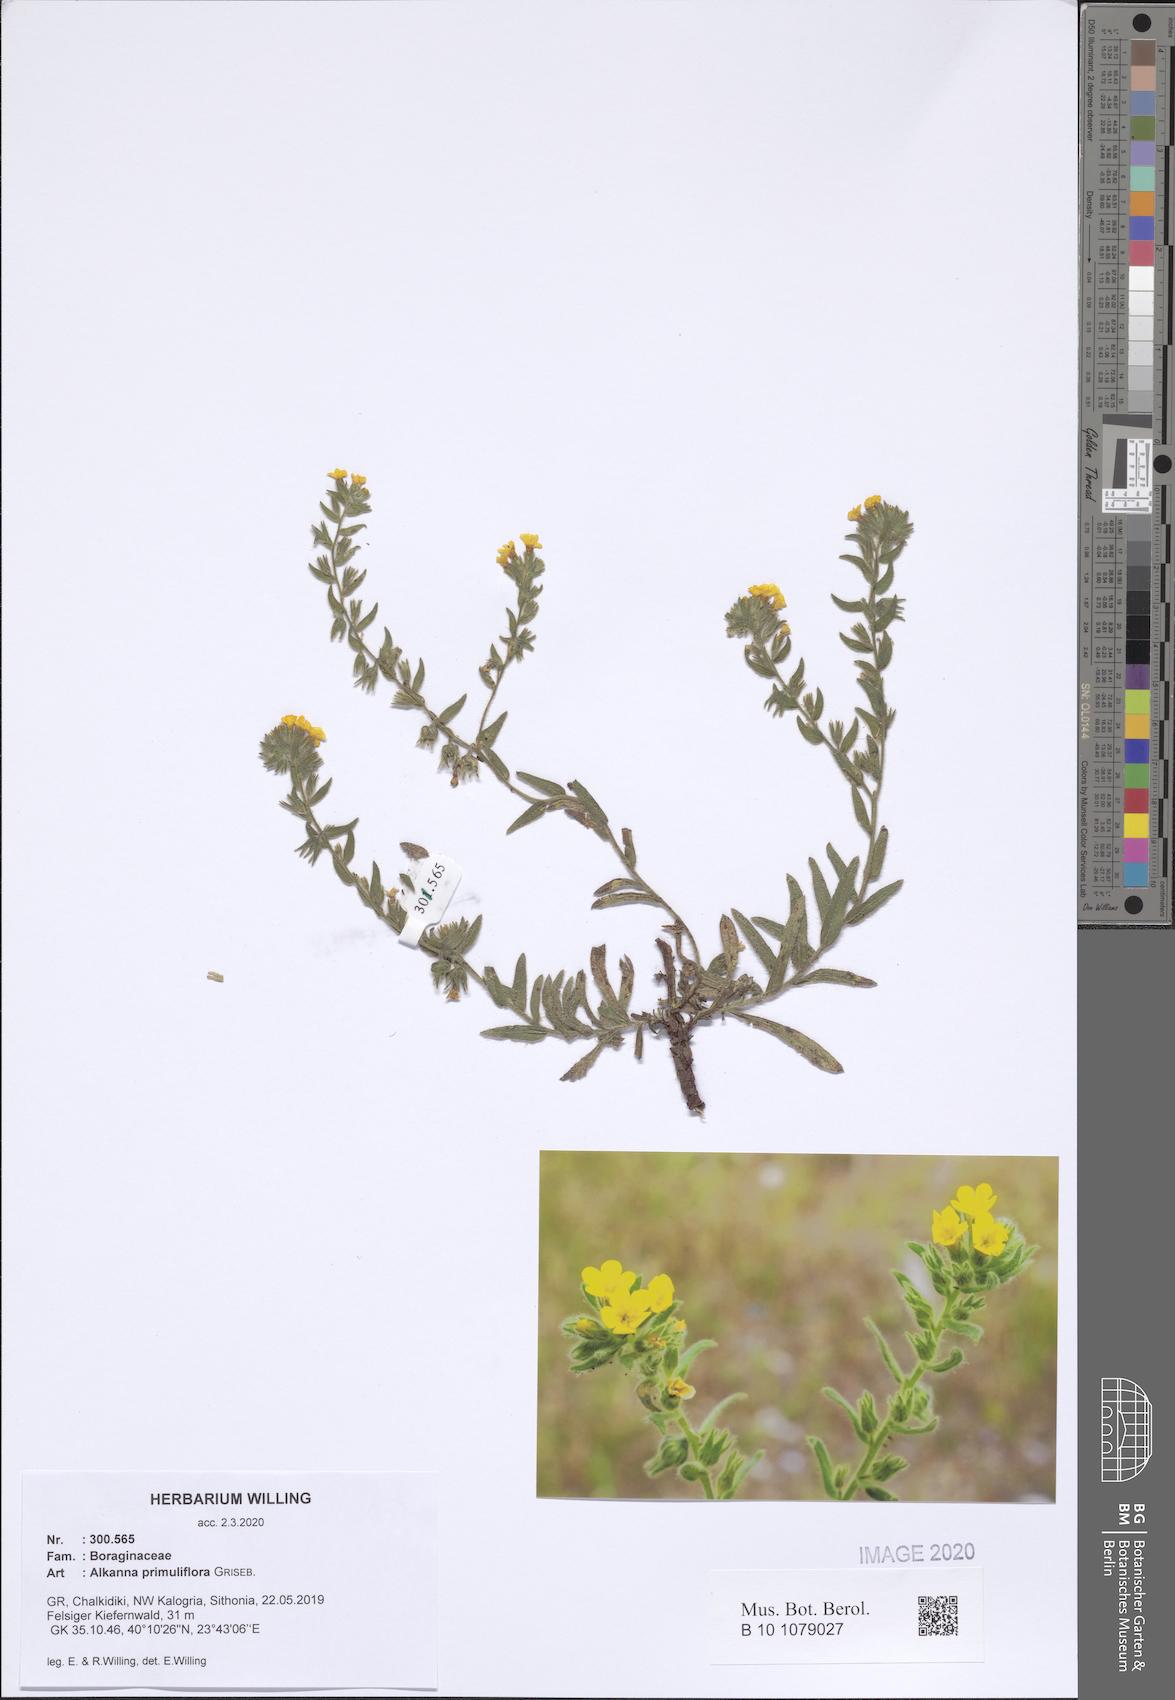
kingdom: Plantae
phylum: Tracheophyta
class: Magnoliopsida
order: Boraginales
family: Boraginaceae
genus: Alkanna
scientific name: Alkanna primuliflora
